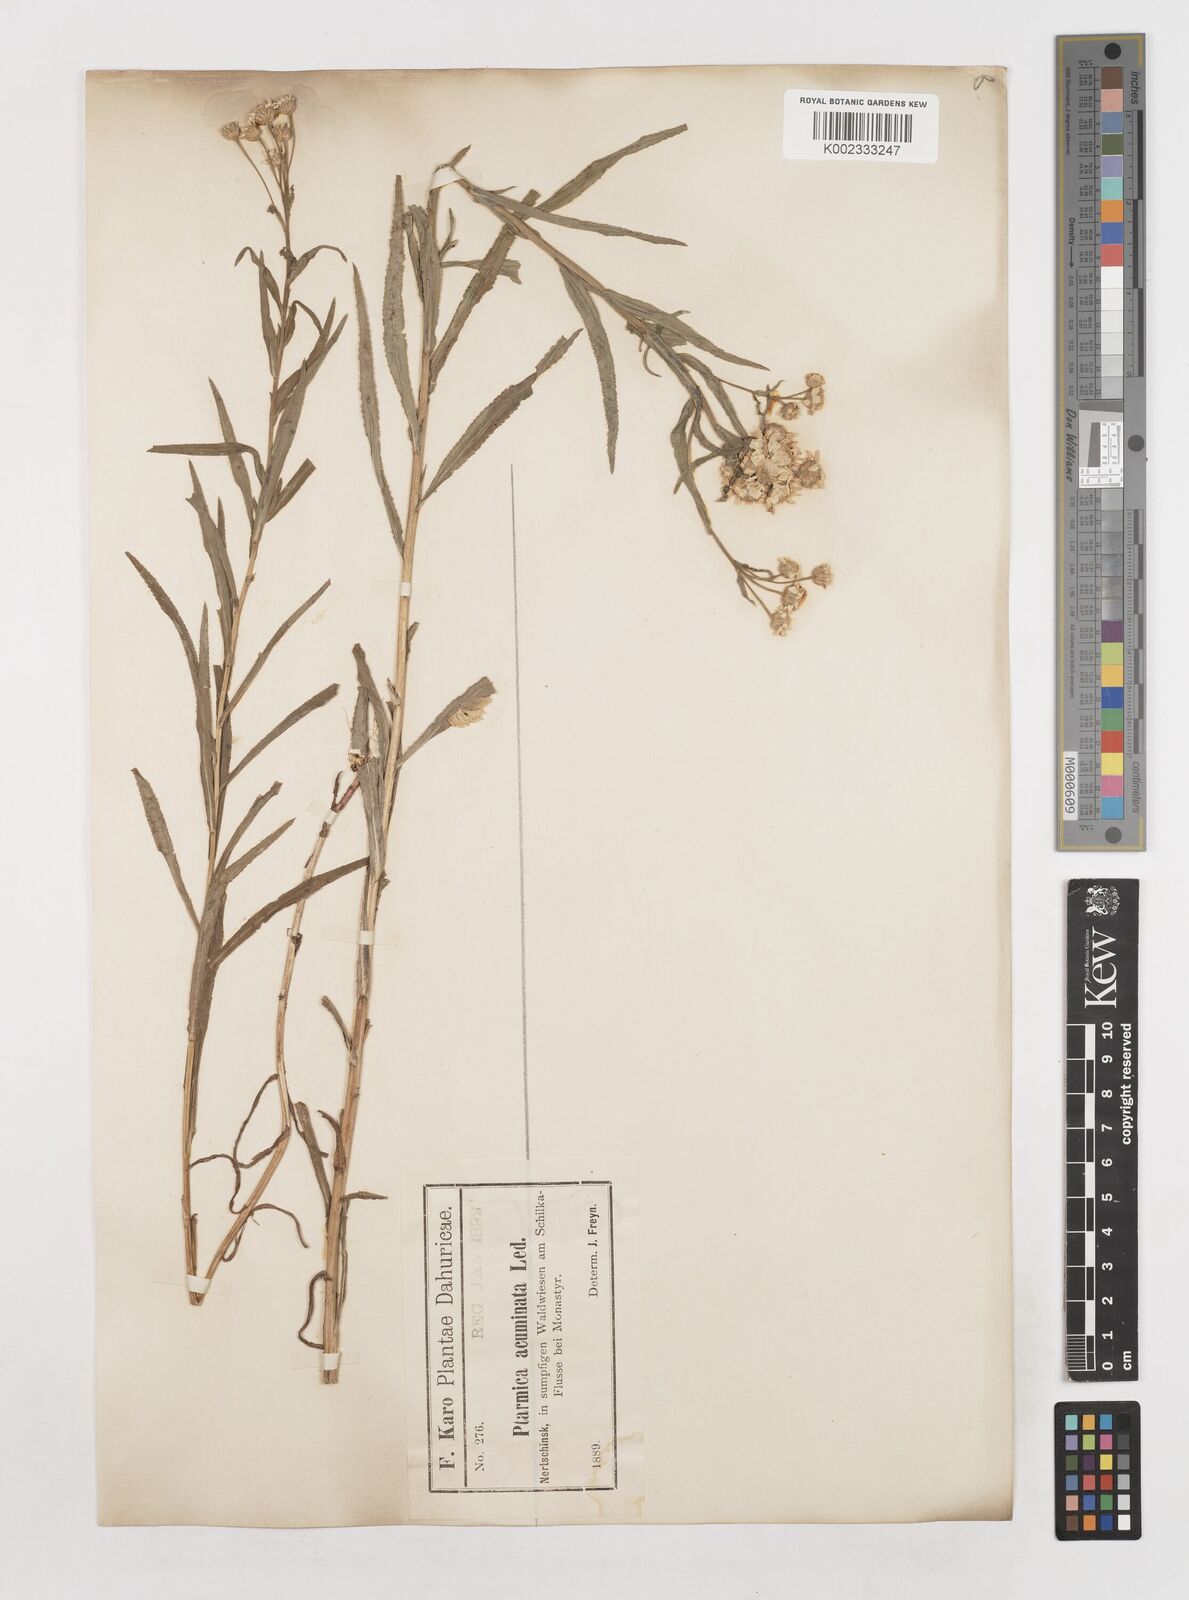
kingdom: Plantae
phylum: Tracheophyta
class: Magnoliopsida
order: Asterales
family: Asteraceae
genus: Achillea
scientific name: Achillea
